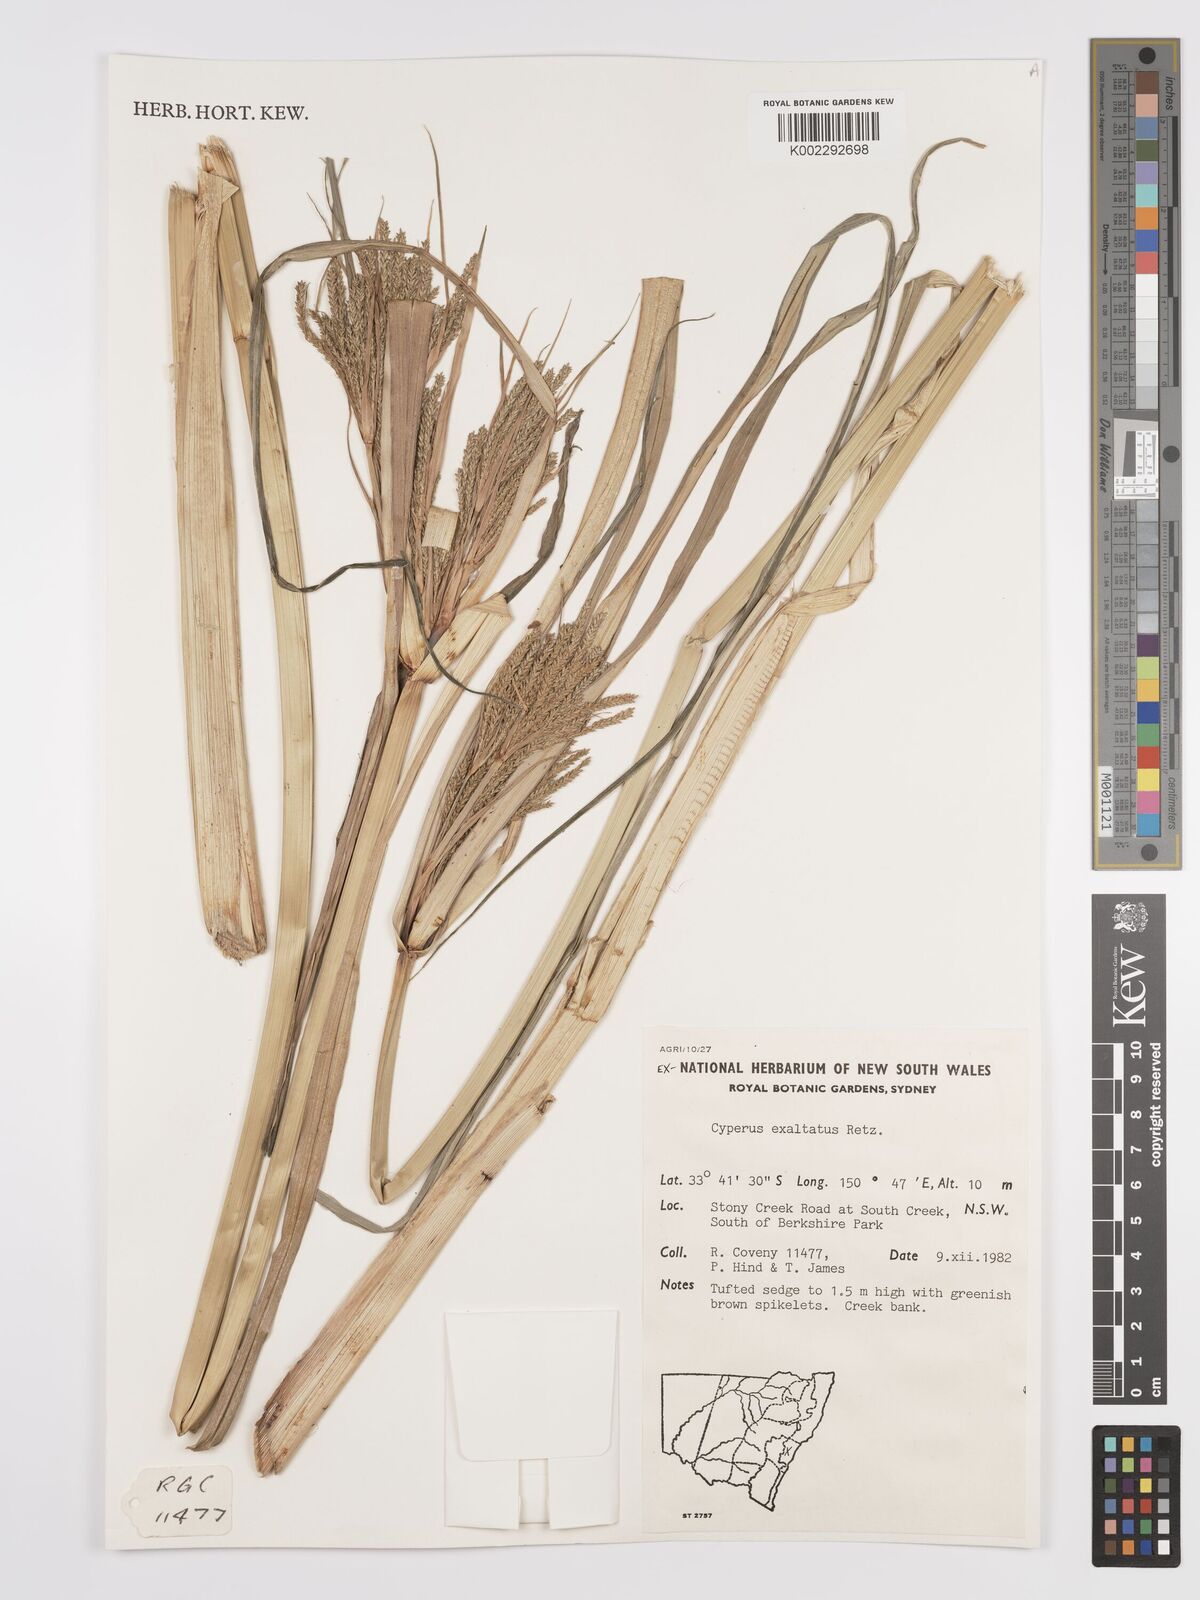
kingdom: Plantae
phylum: Tracheophyta
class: Liliopsida
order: Poales
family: Cyperaceae
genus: Cyperus
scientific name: Cyperus exaltatus
